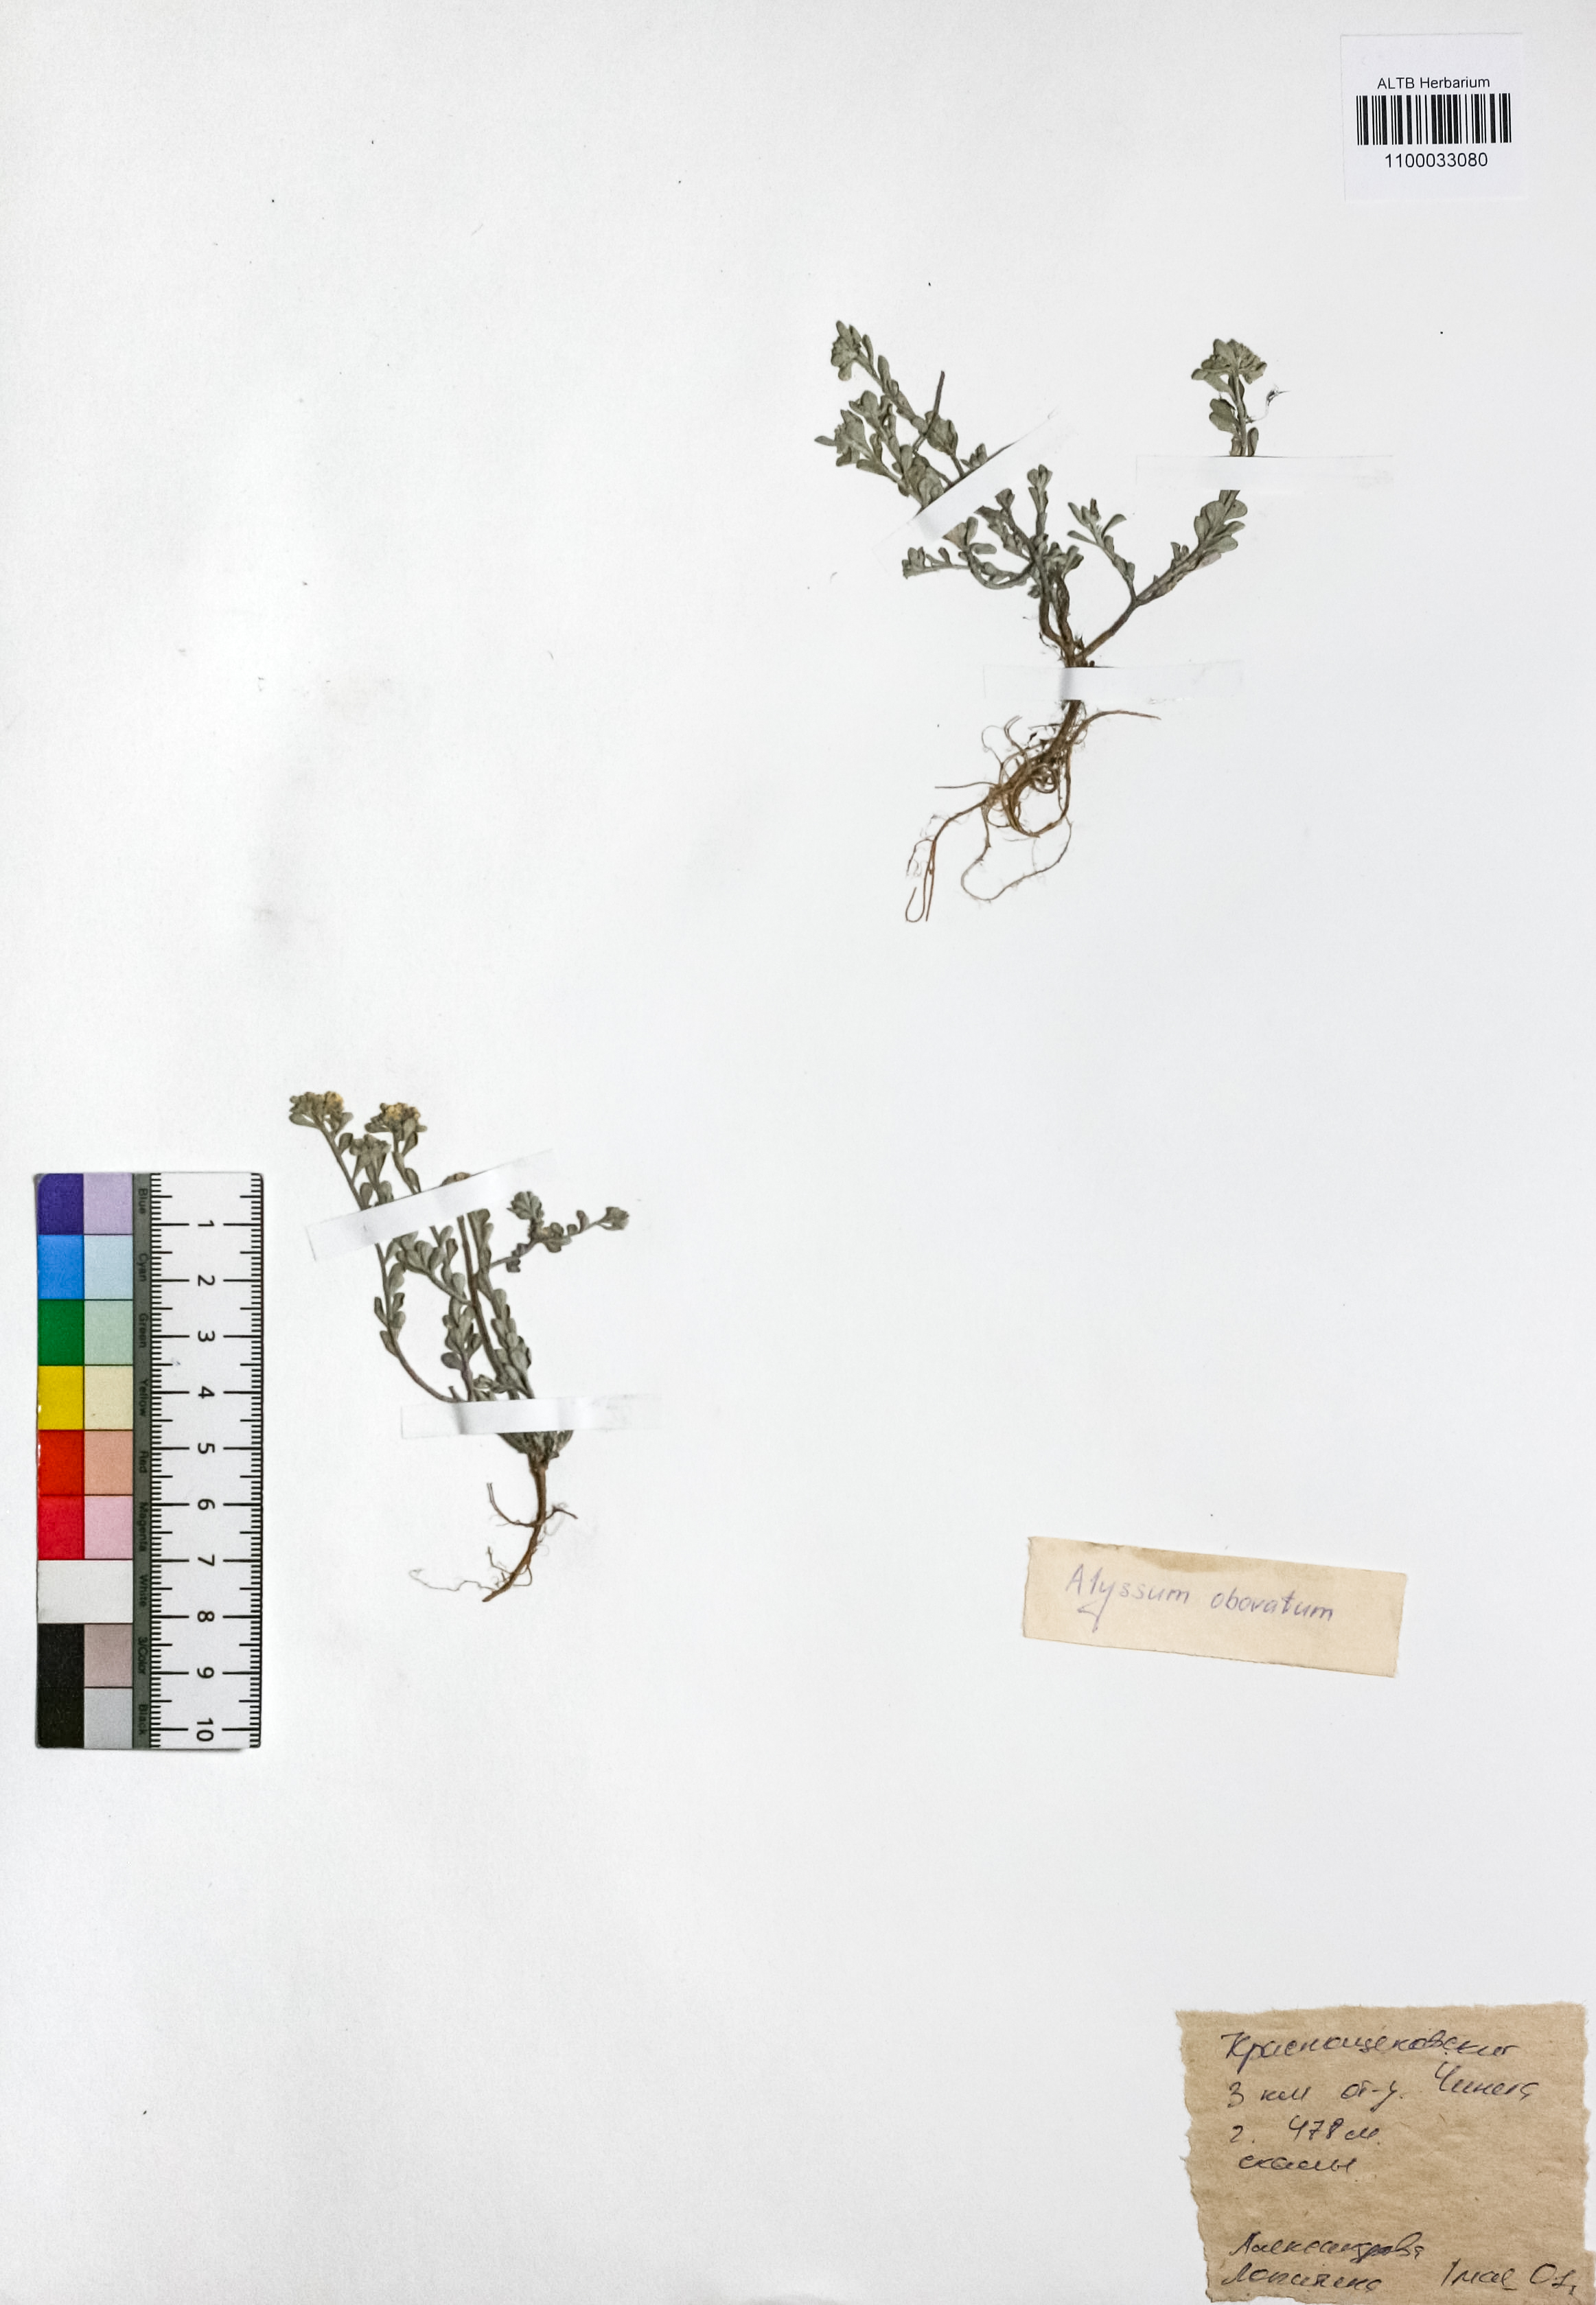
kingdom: Plantae
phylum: Tracheophyta
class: Magnoliopsida
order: Brassicales
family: Brassicaceae
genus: Odontarrhena
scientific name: Odontarrhena obovata
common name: American alyssum
